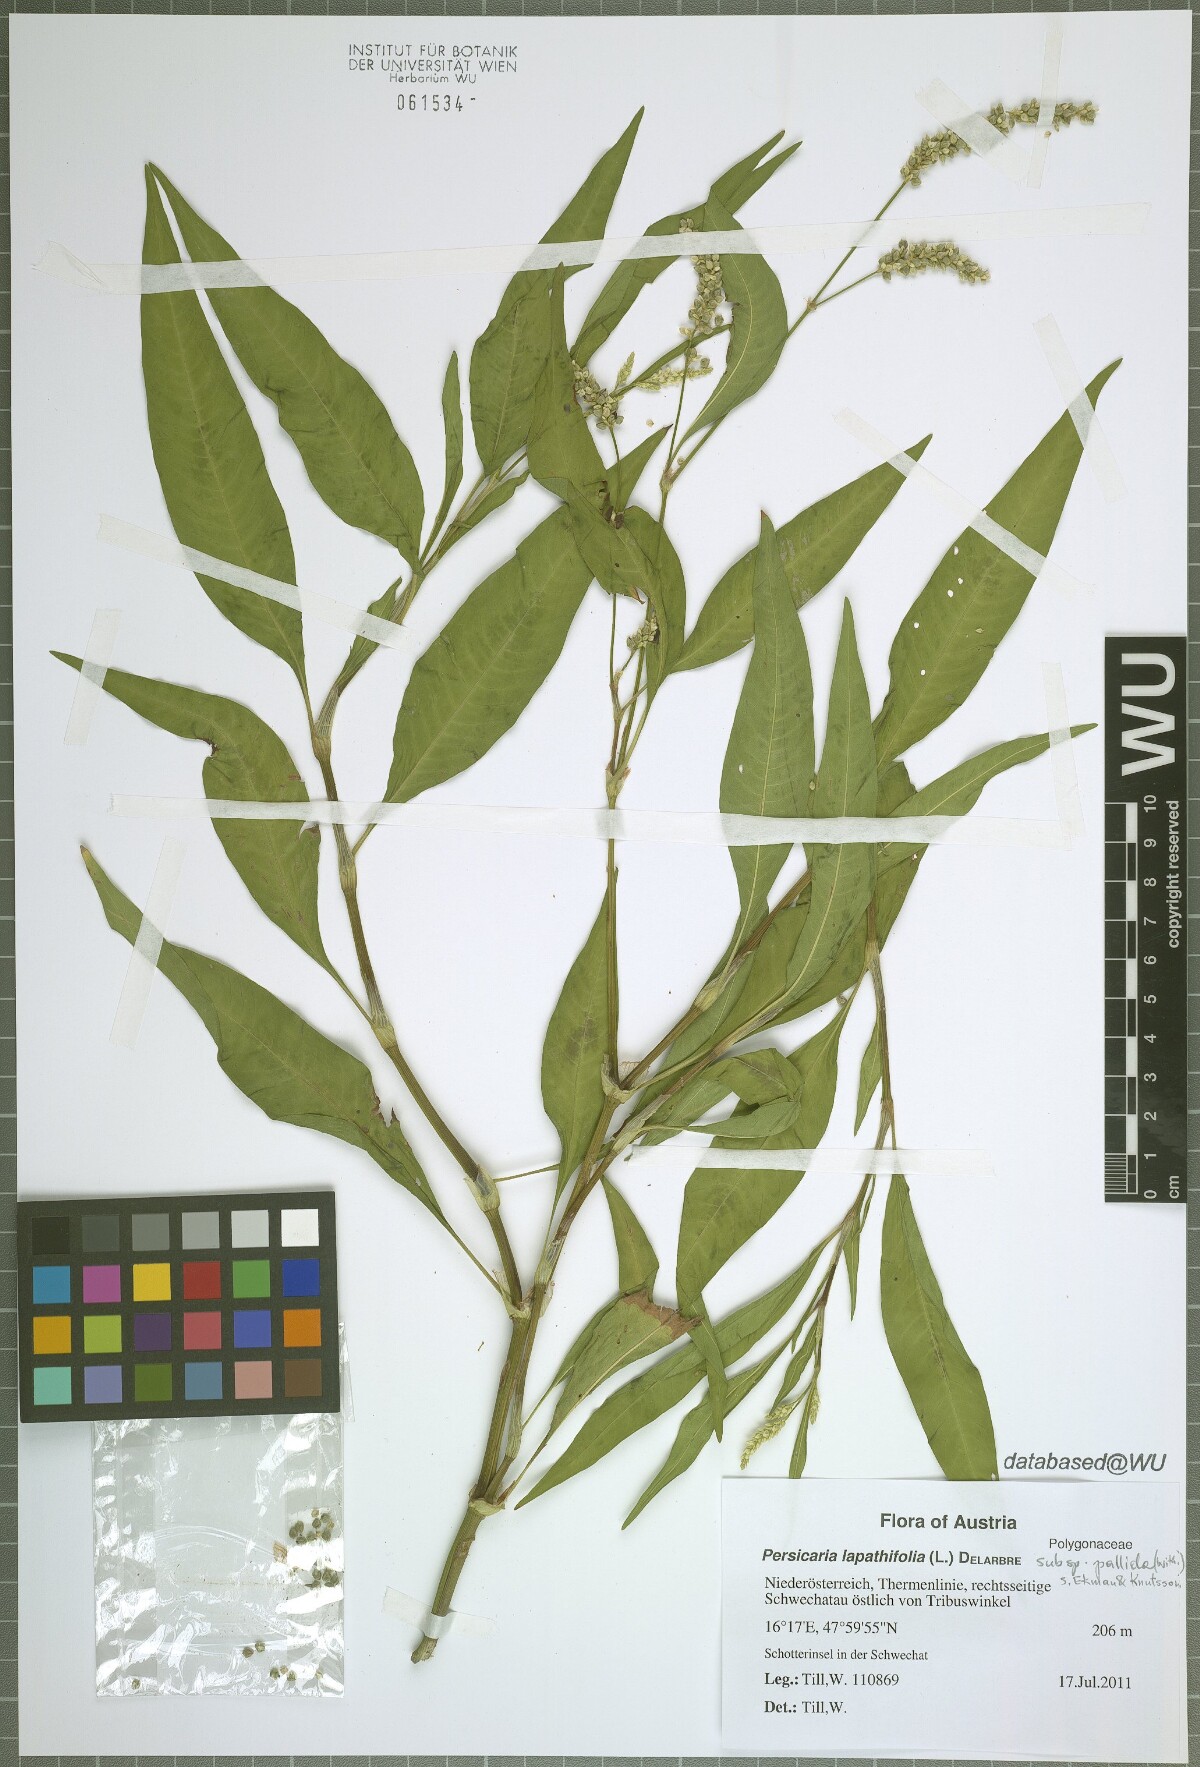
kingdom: Plantae
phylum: Tracheophyta
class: Magnoliopsida
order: Caryophyllales
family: Polygonaceae
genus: Persicaria
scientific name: Persicaria lapathifolia
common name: Curlytop knotweed
